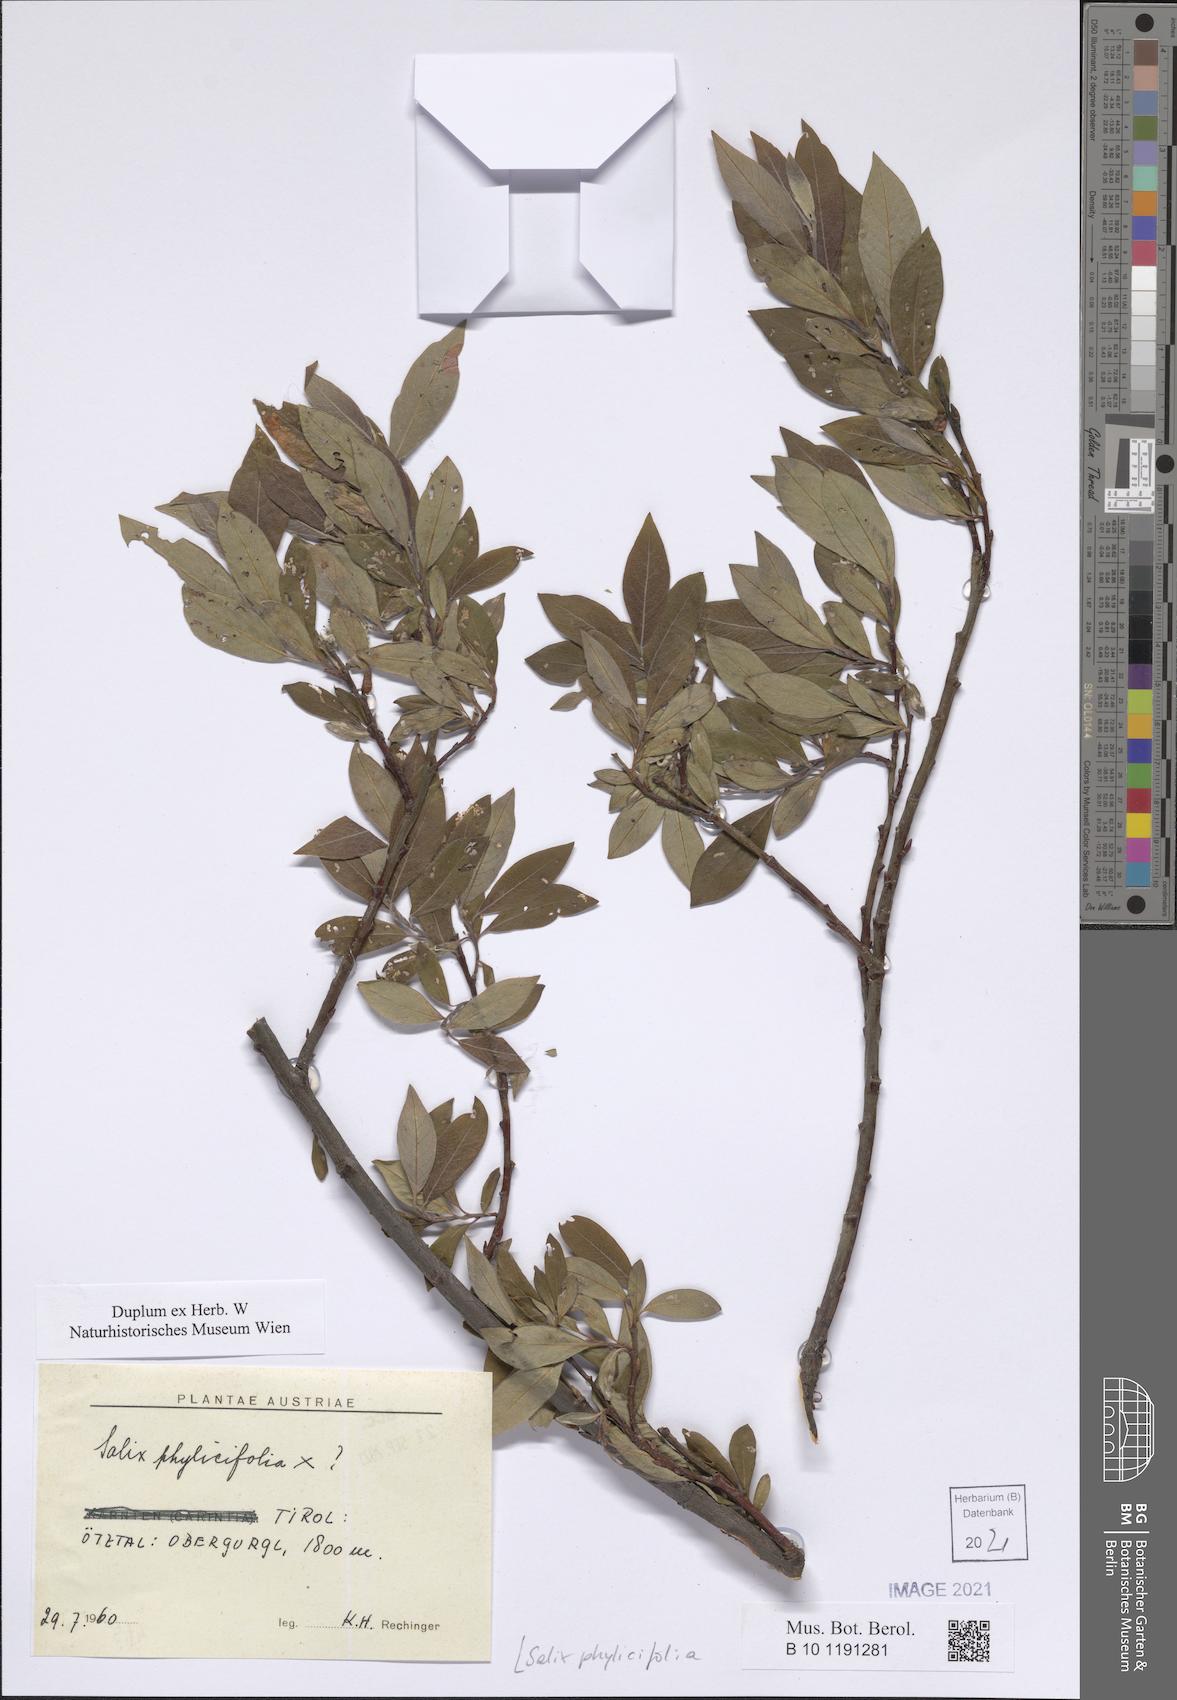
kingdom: Plantae
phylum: Tracheophyta
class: Magnoliopsida
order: Malpighiales
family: Salicaceae
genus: Salix
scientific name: Salix phylicifolia
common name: Tea-leaved willow
